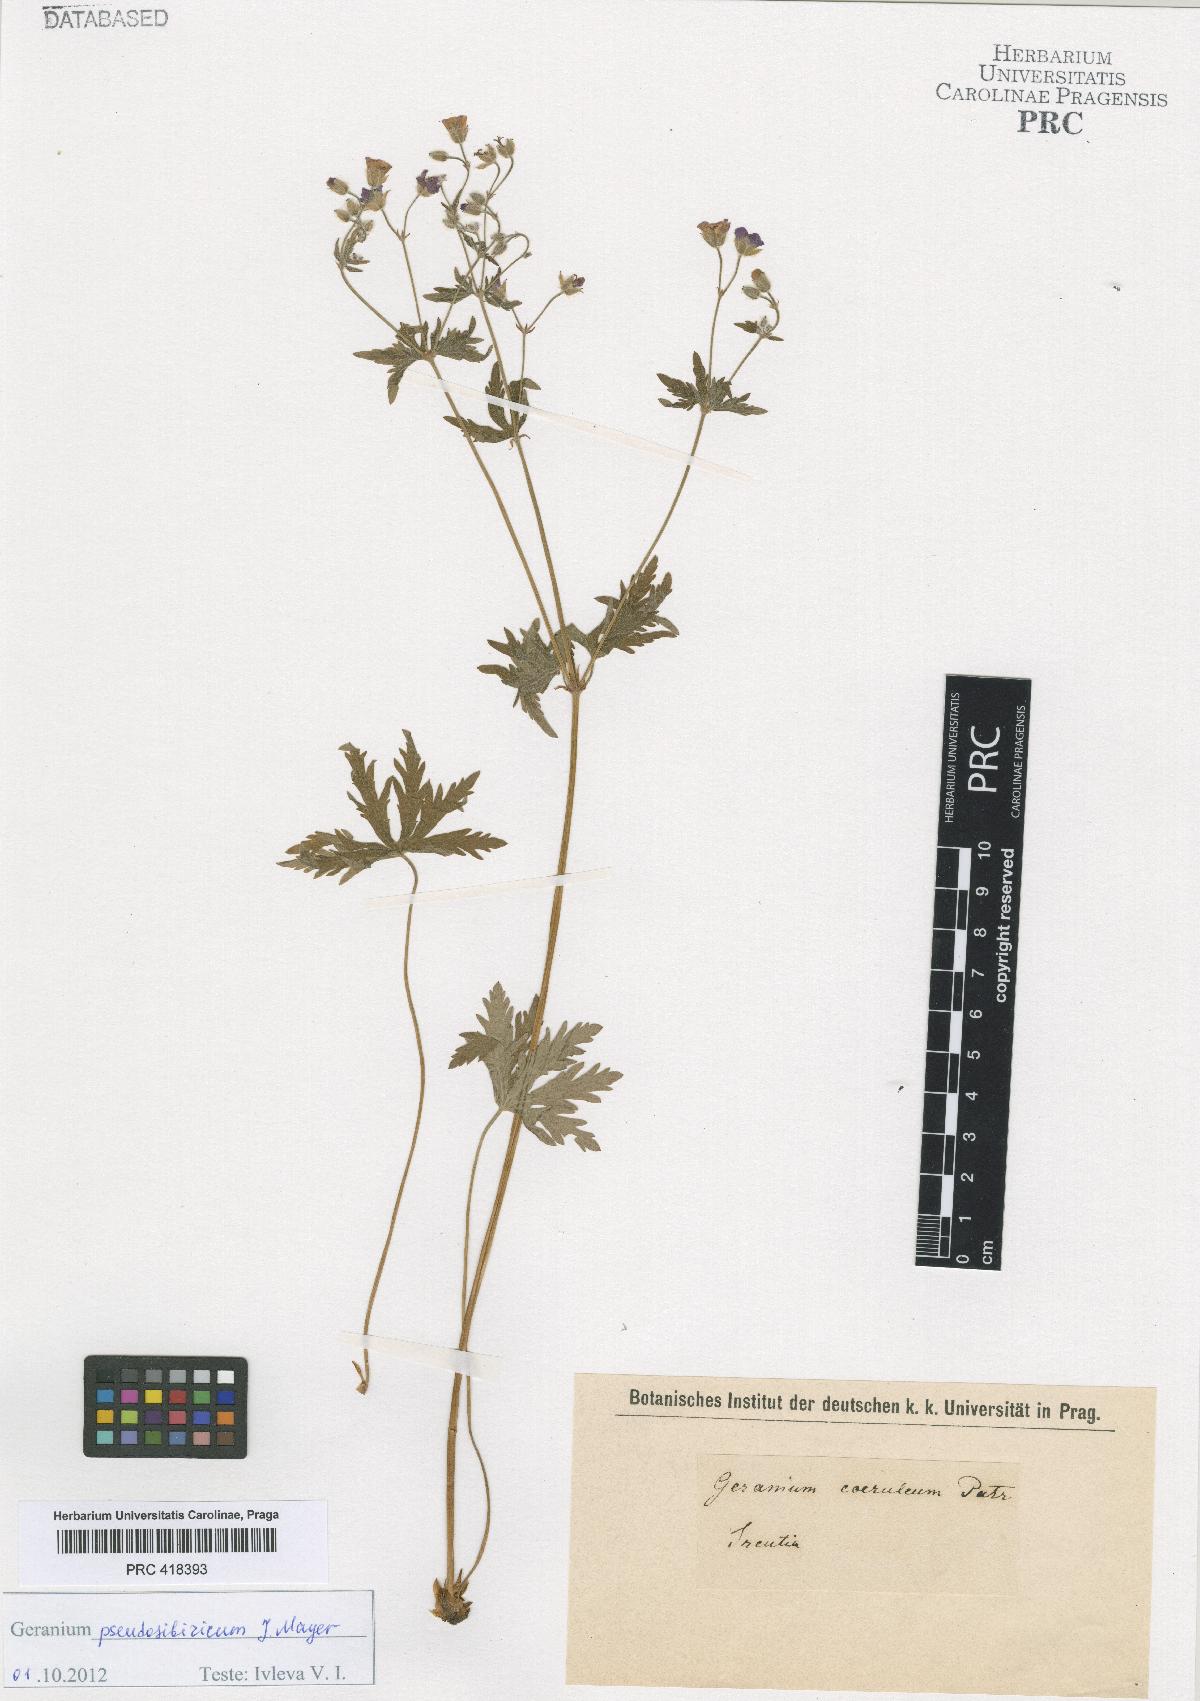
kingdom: Plantae
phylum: Tracheophyta
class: Magnoliopsida
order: Geraniales
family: Geraniaceae
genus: Geranium
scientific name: Geranium pseudosibiricum
